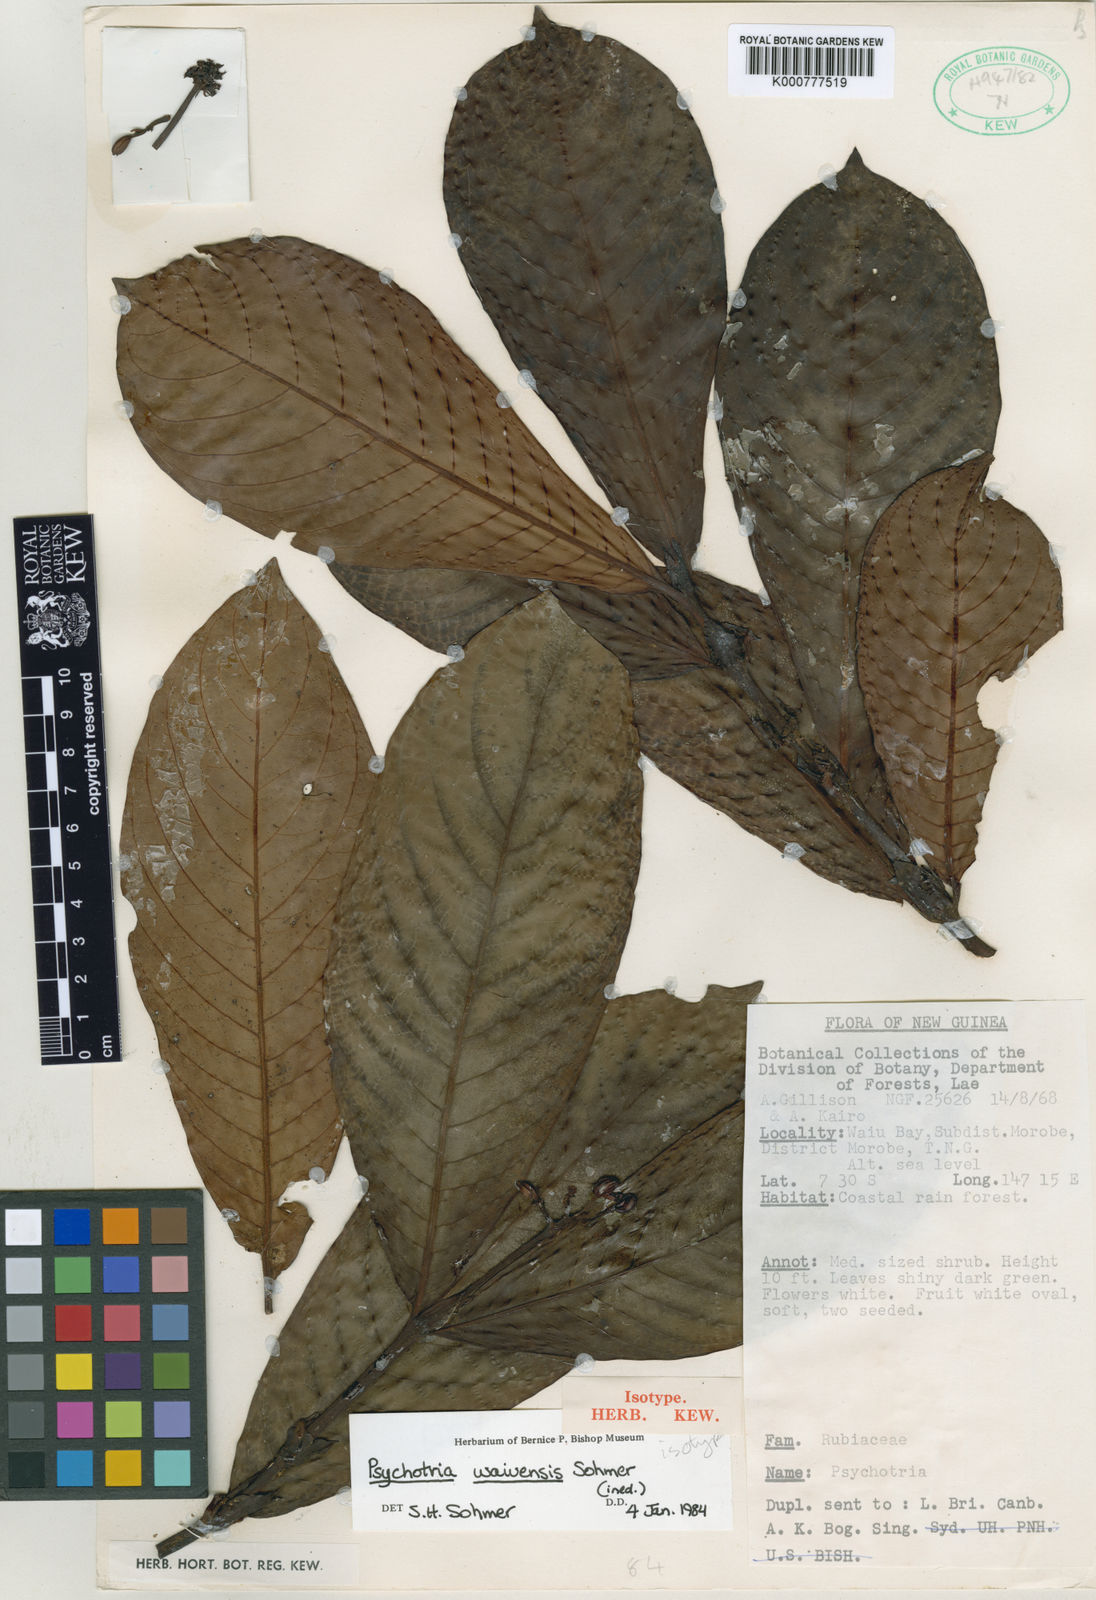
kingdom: Plantae
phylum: Tracheophyta
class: Magnoliopsida
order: Gentianales
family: Rubiaceae
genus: Psychotria
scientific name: Psychotria
